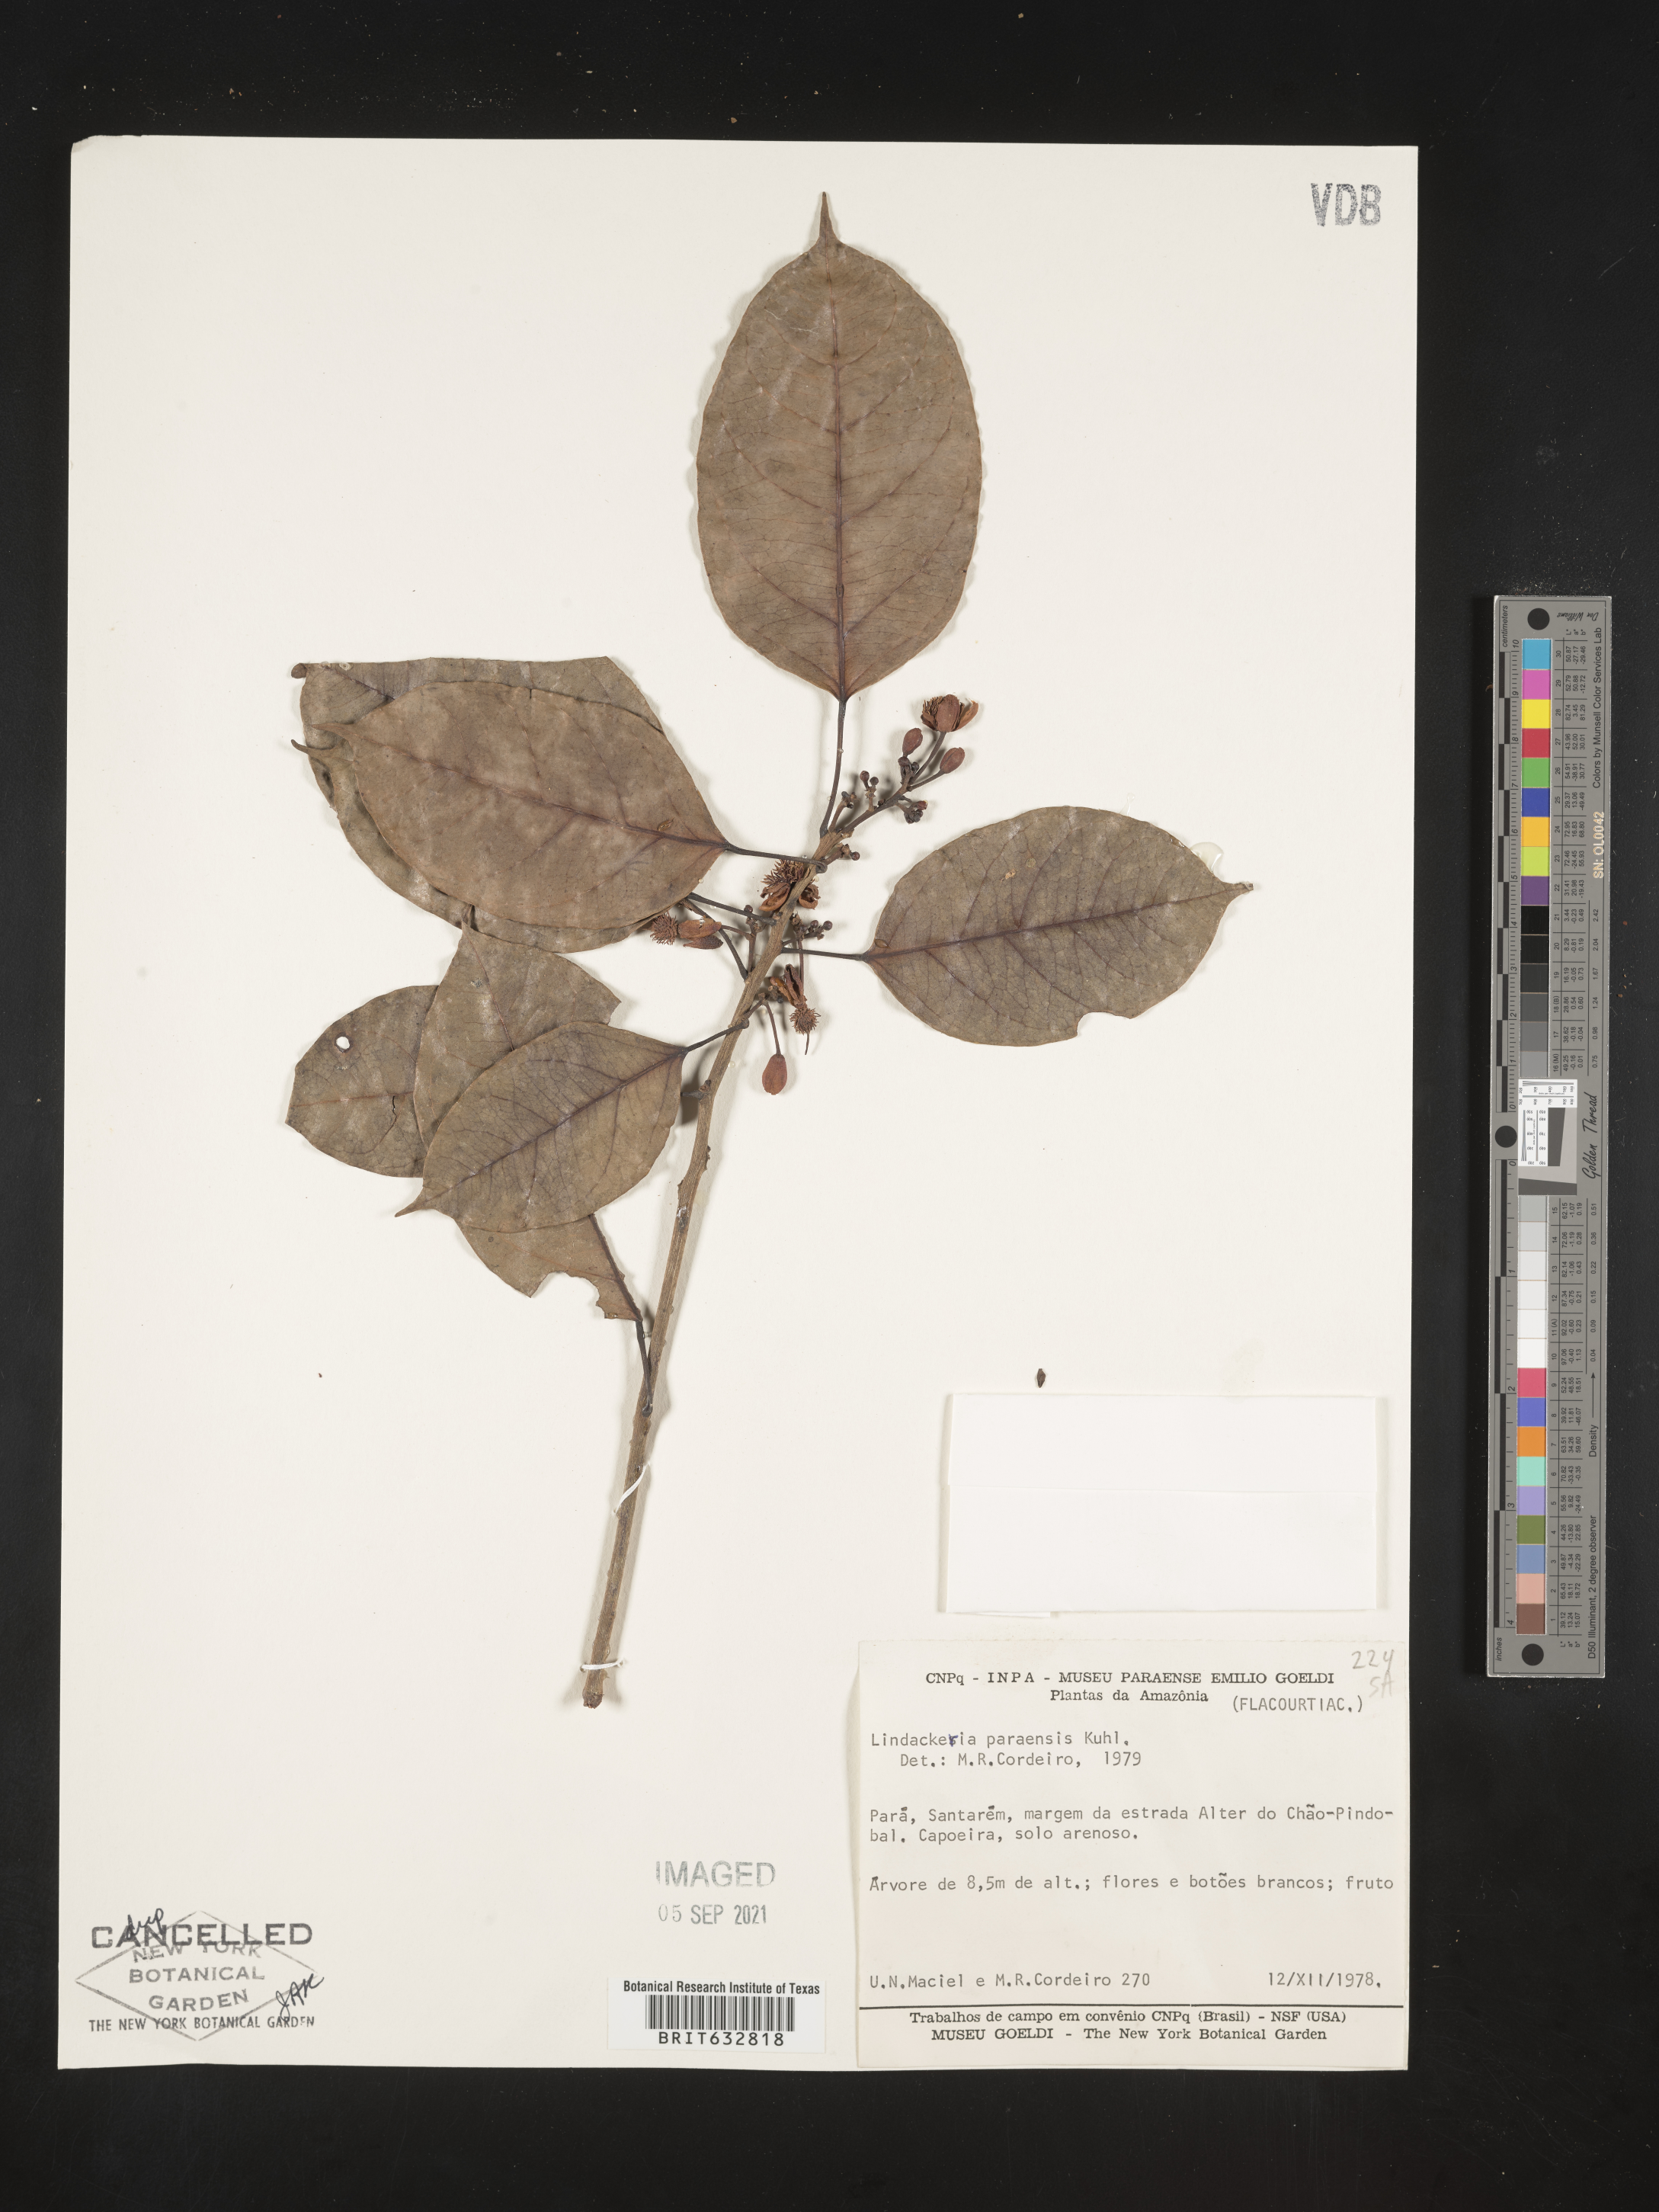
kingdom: Plantae
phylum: Tracheophyta
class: Magnoliopsida
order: Malpighiales
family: Achariaceae
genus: Lindackeria
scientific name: Lindackeria paraensis
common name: Canela-de-velha
